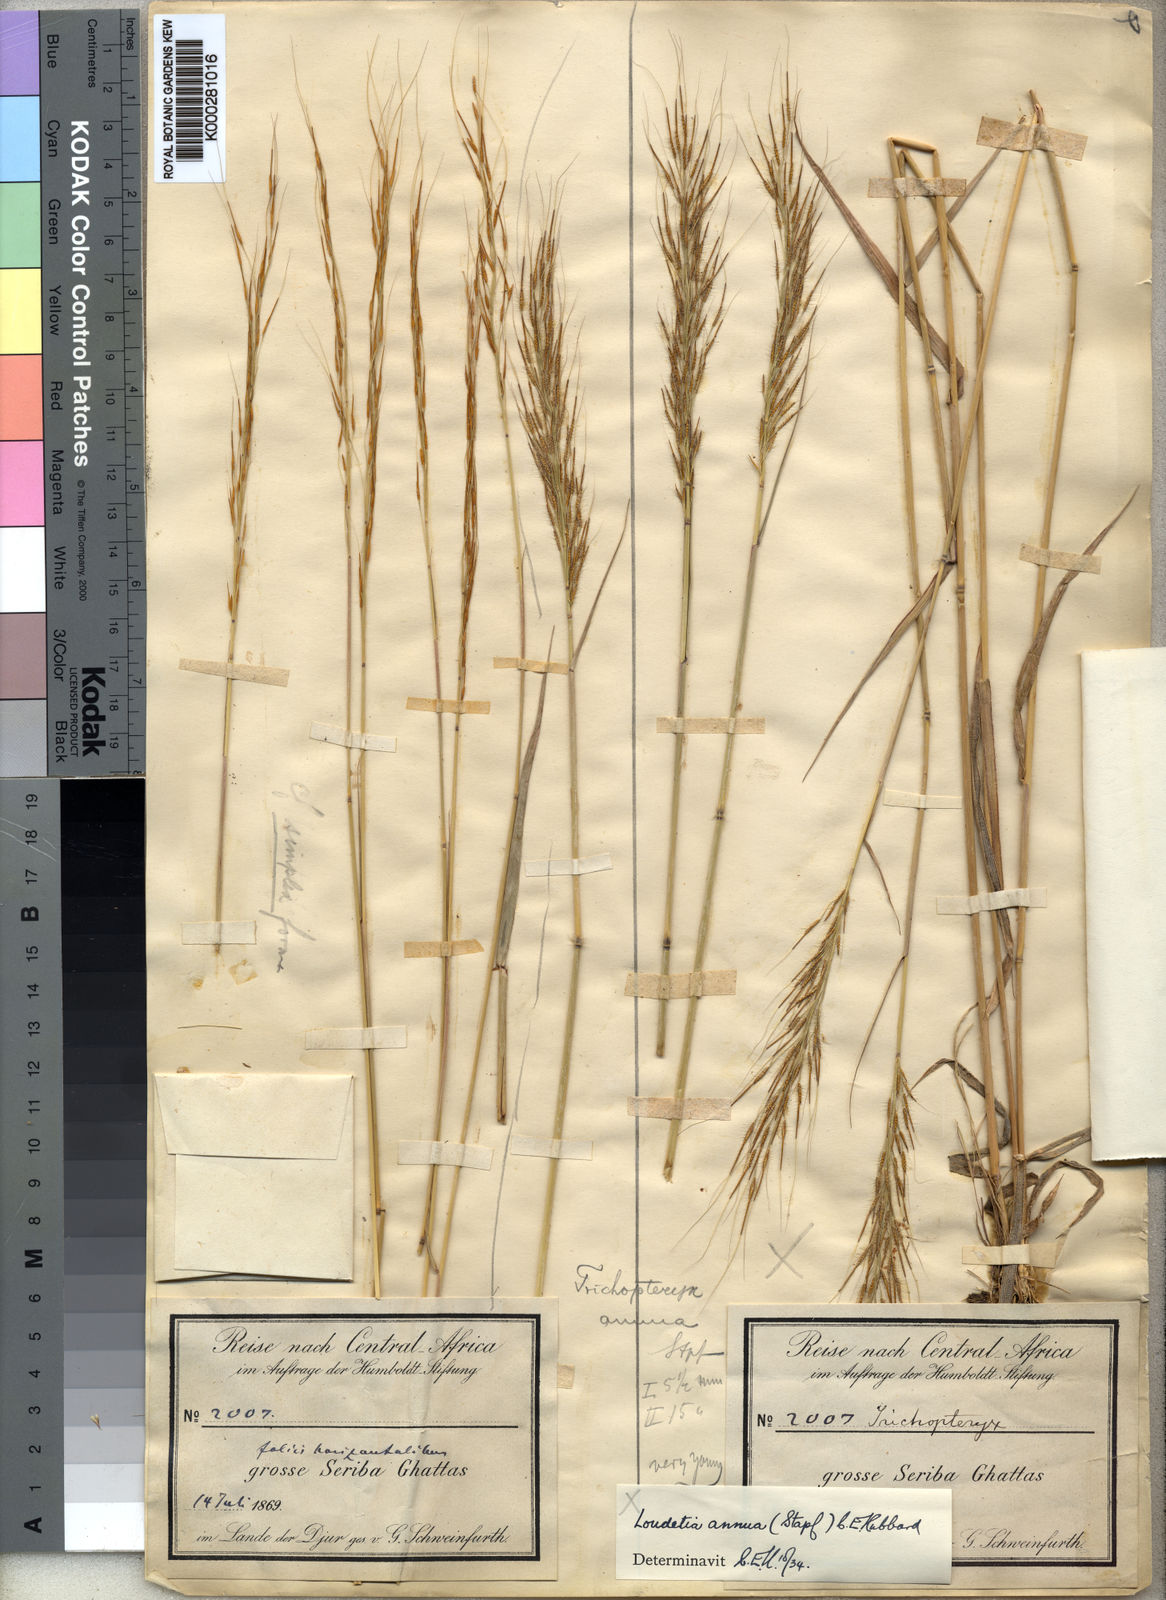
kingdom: Plantae
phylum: Tracheophyta
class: Liliopsida
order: Poales
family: Poaceae
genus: Loudetia
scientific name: Loudetia annua
